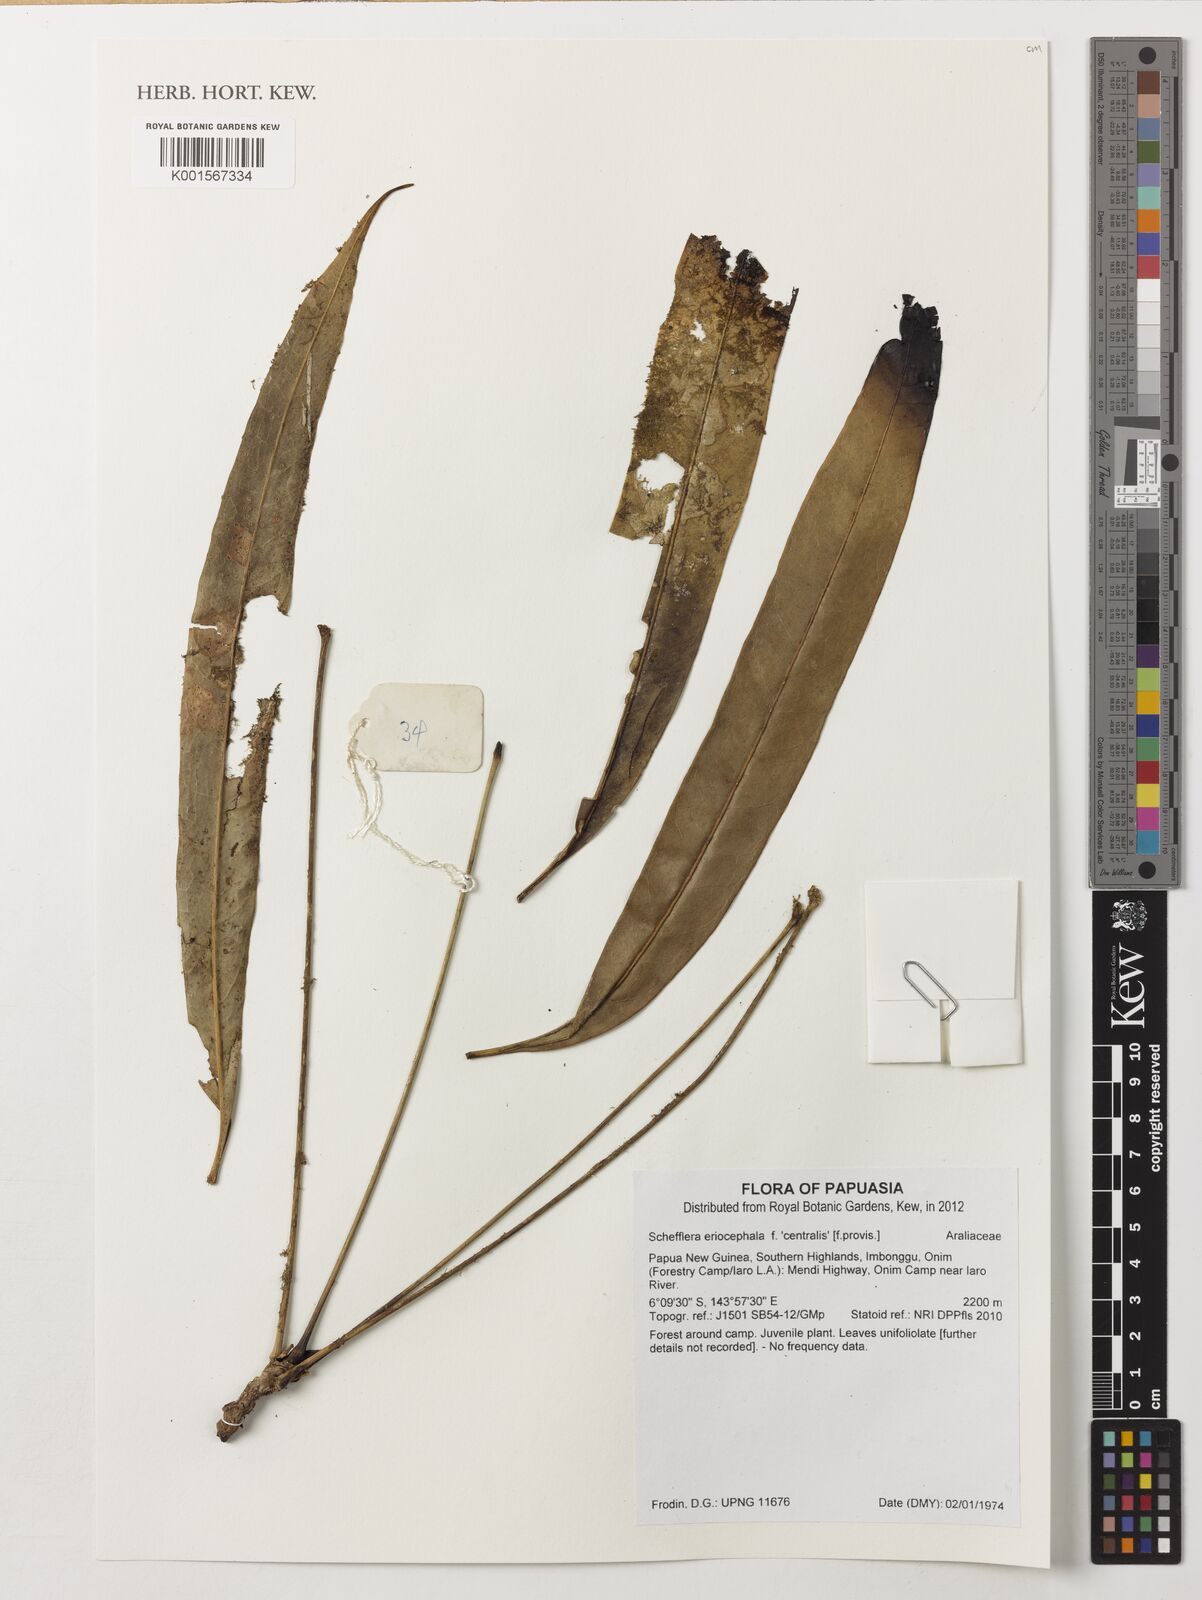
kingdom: Plantae
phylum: Tracheophyta
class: Magnoliopsida
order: Apiales
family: Araliaceae
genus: Heptapleurum
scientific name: Heptapleurum eriocephalum
